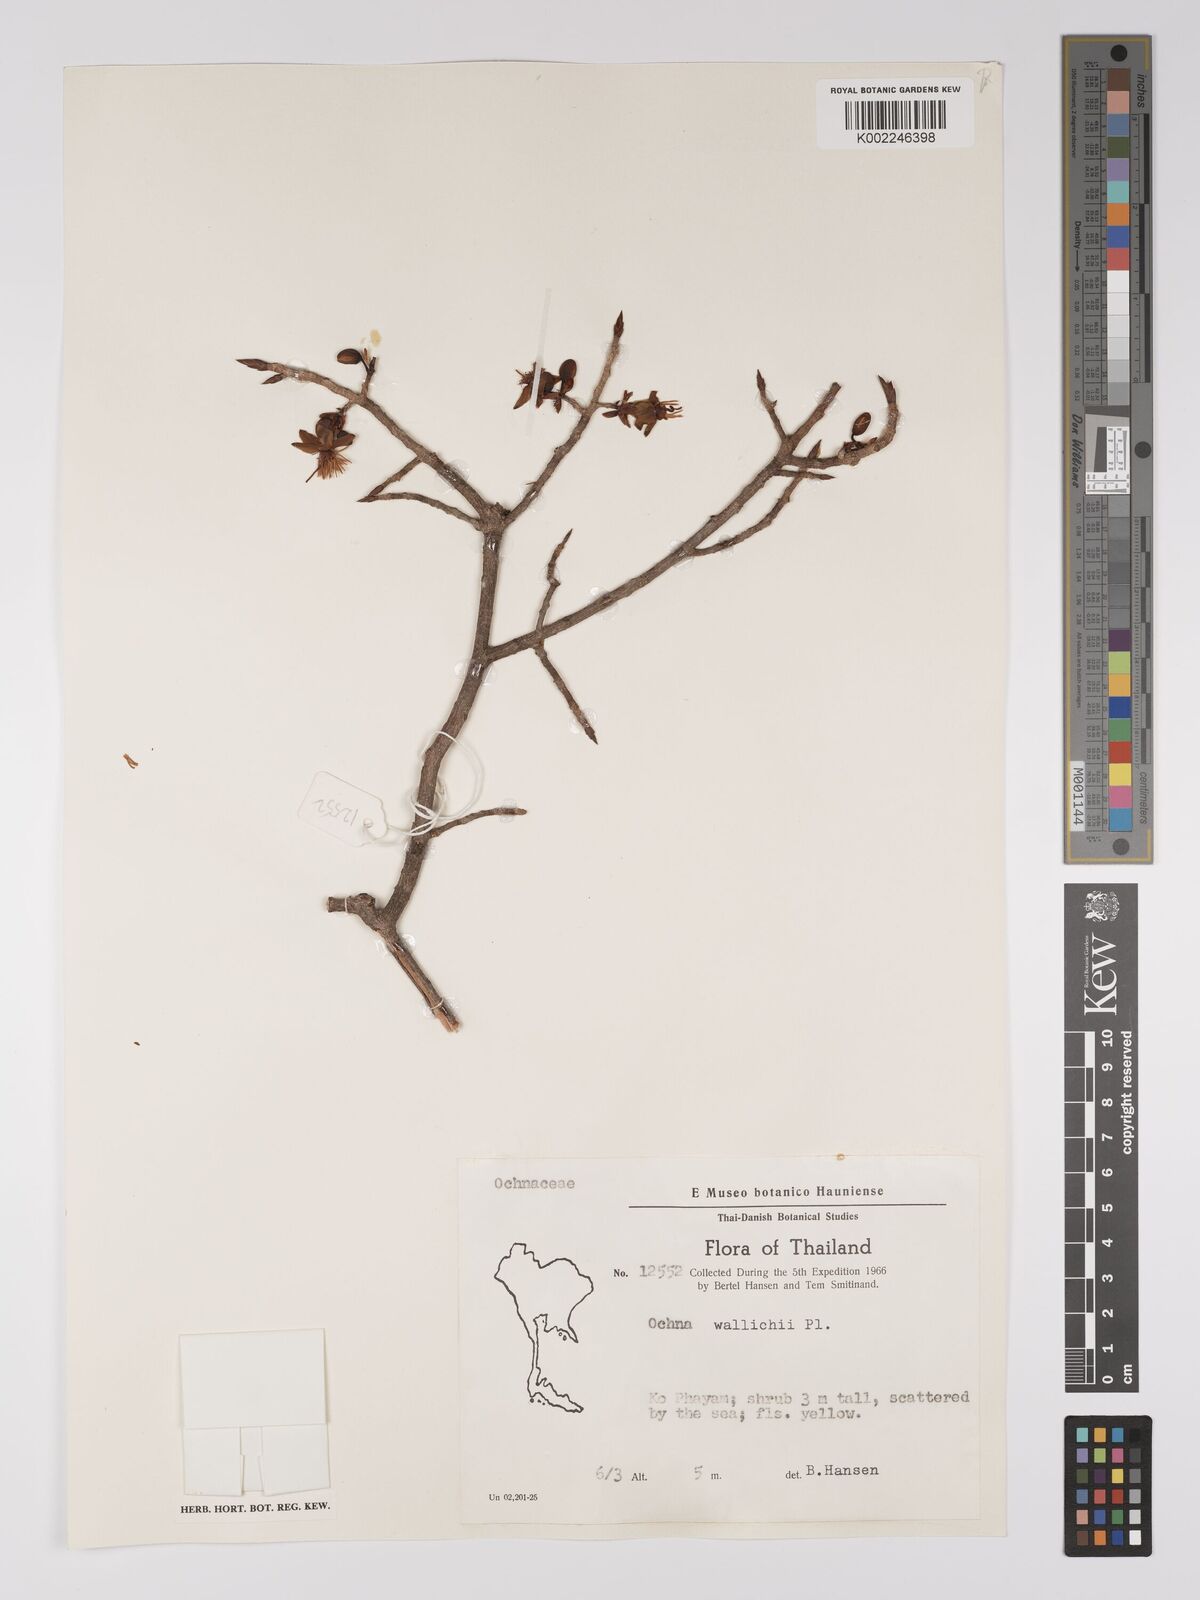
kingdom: Plantae
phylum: Tracheophyta
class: Magnoliopsida
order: Malpighiales
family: Ochnaceae
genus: Ochna
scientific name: Ochna integerrima
